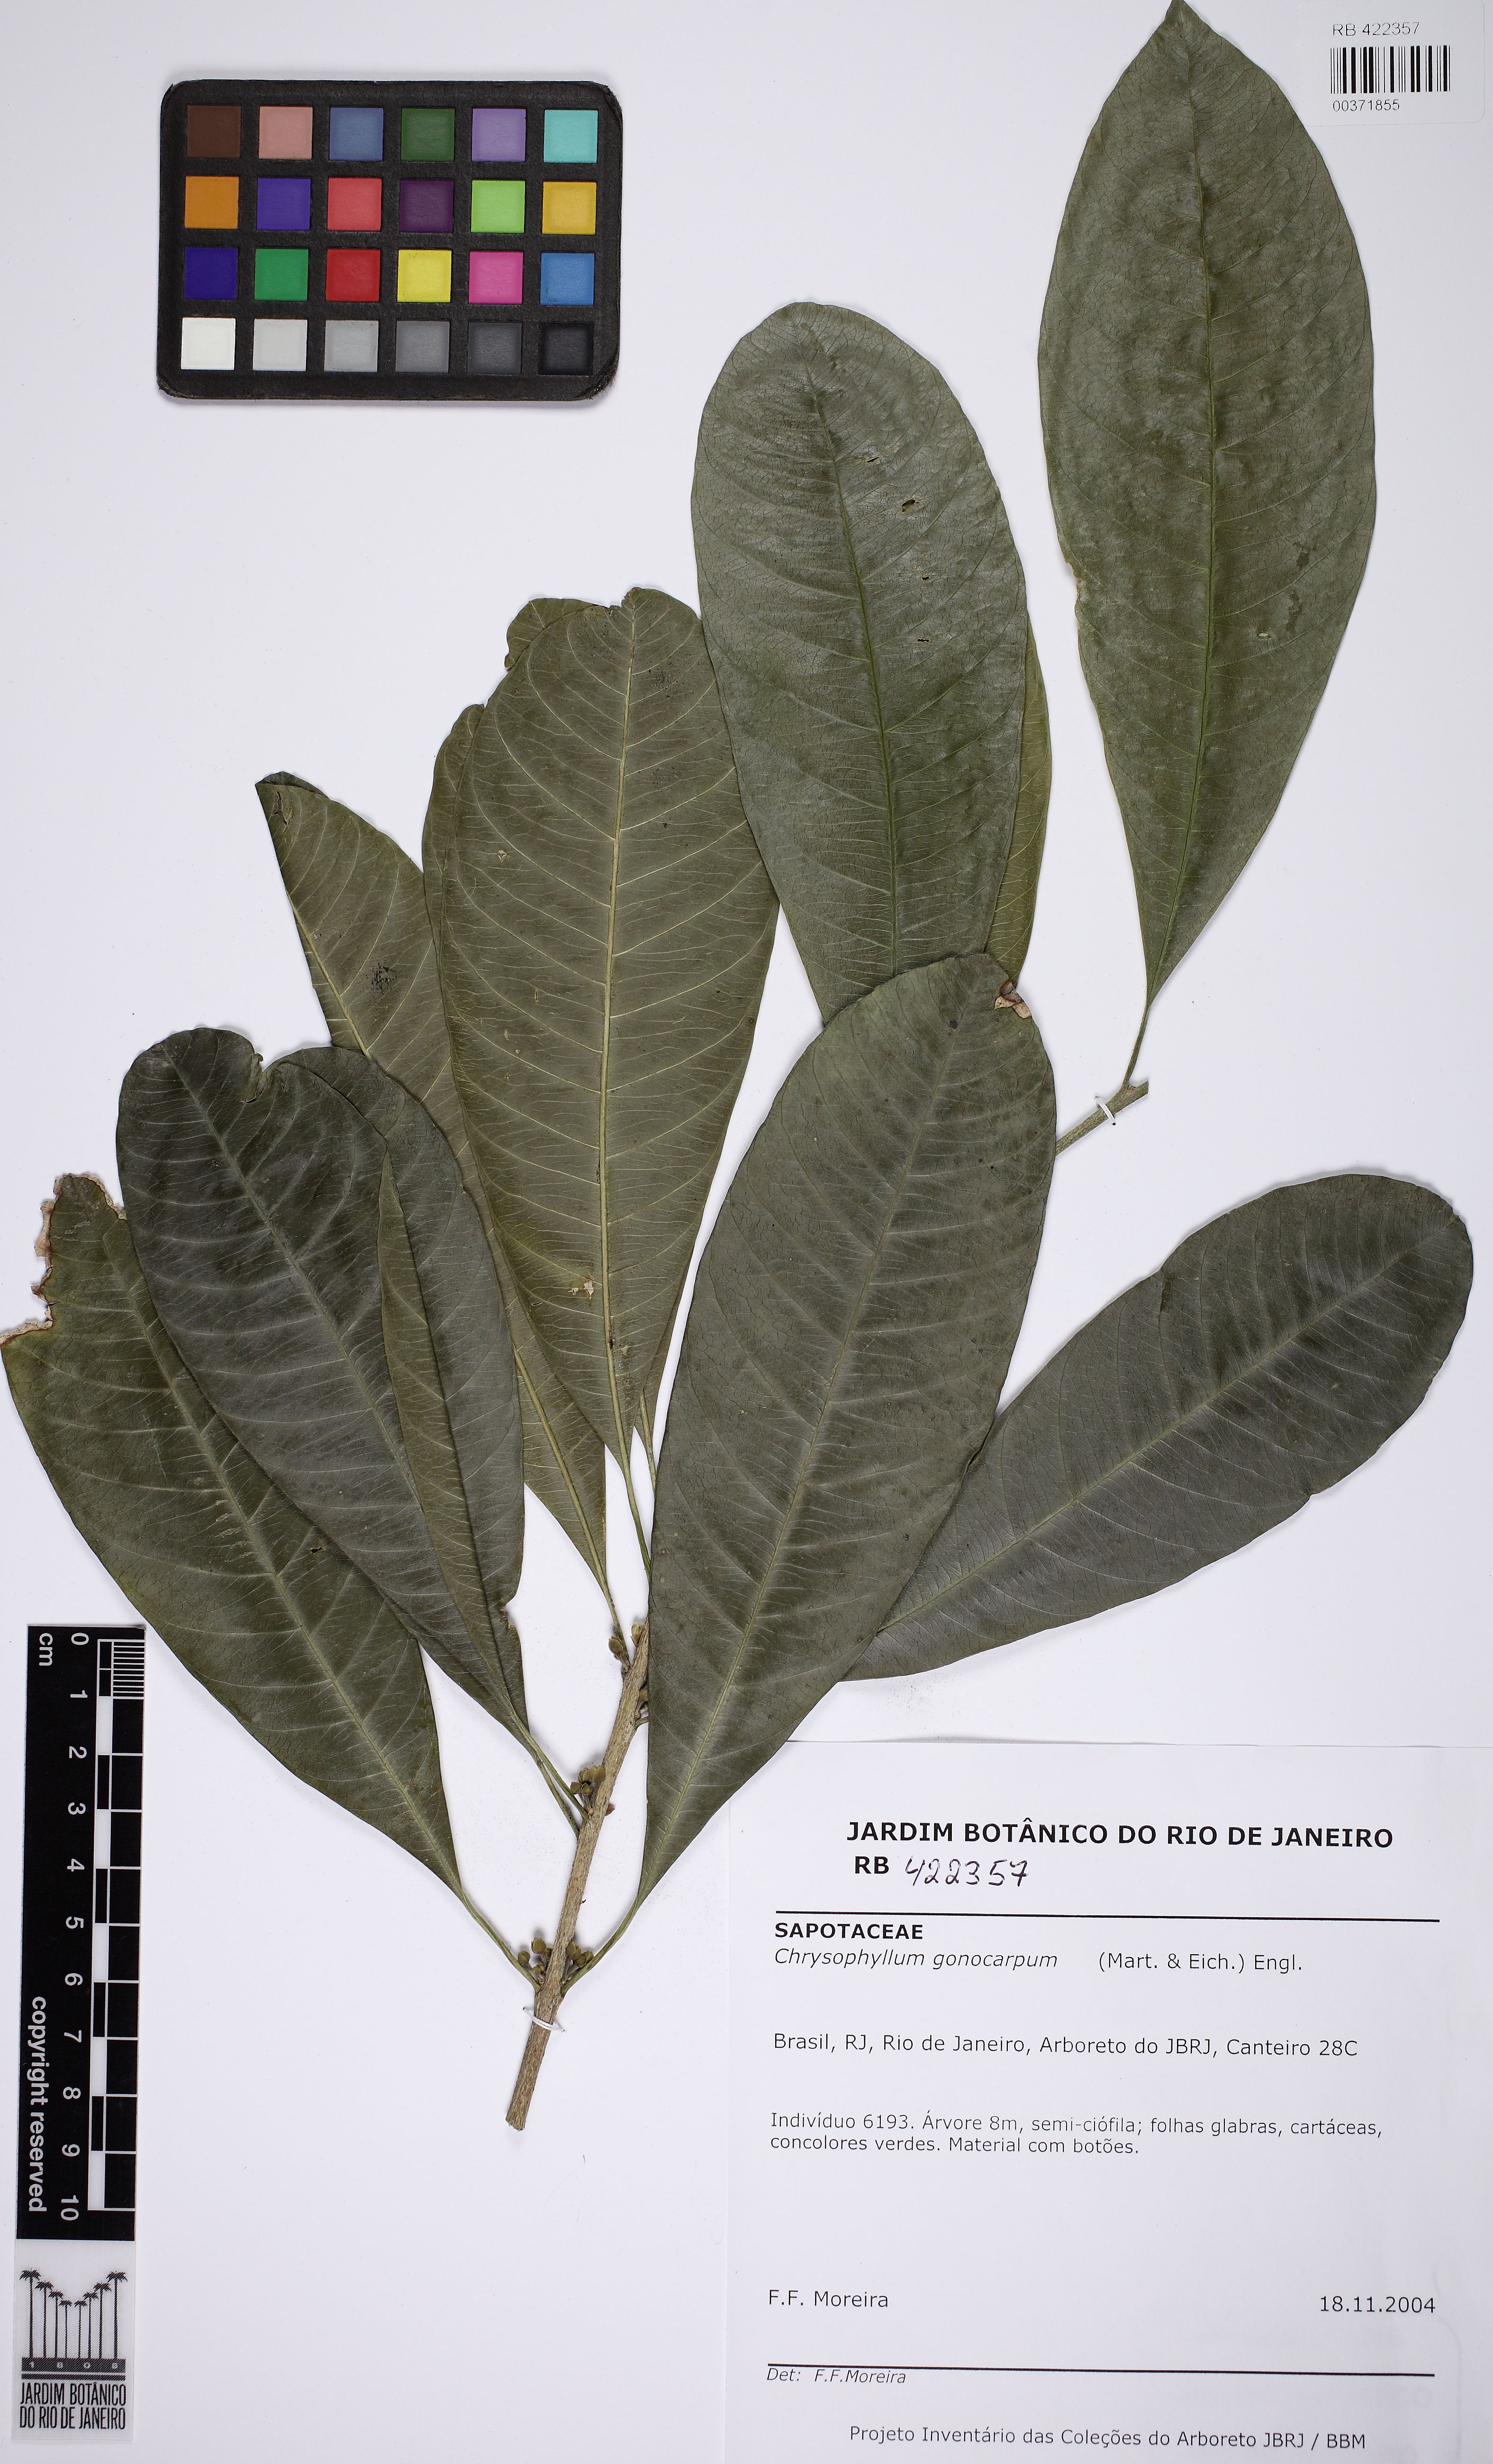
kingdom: Plantae
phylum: Tracheophyta
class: Magnoliopsida
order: Ericales
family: Sapotaceae
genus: Chrysophyllum
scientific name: Chrysophyllum gonocarpum
